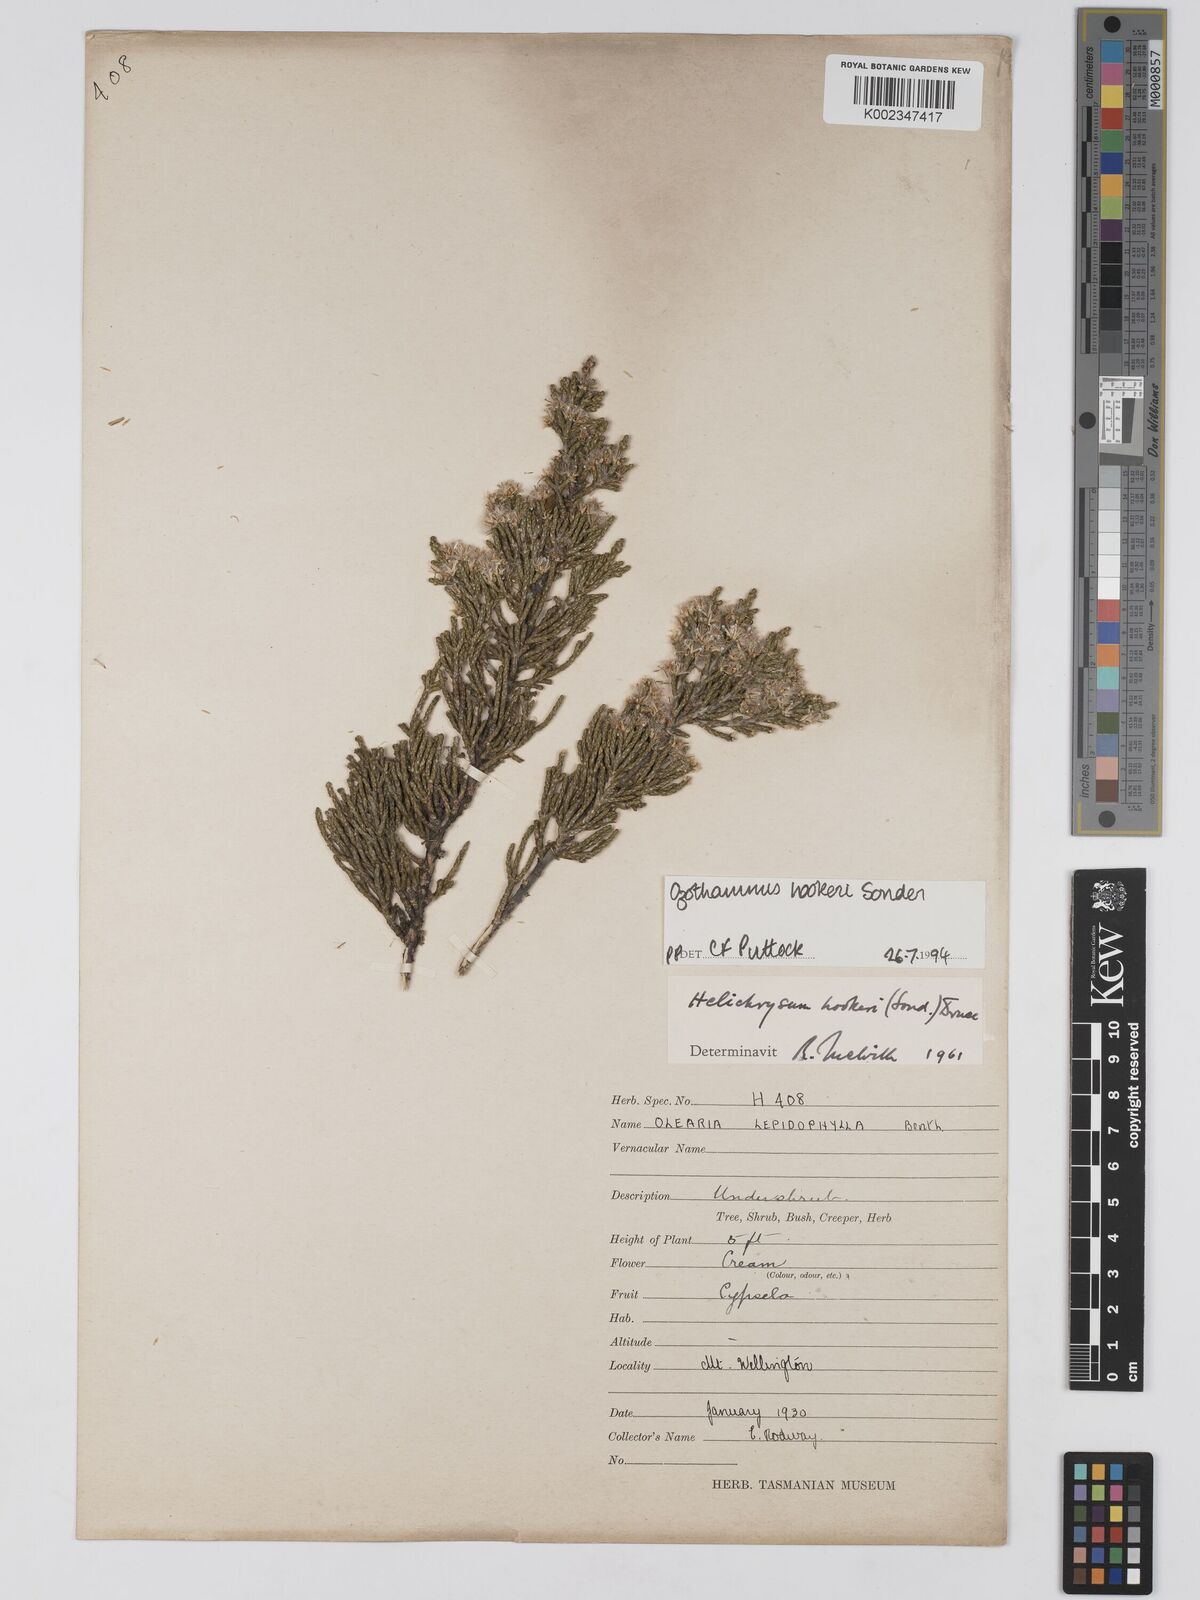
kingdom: Plantae
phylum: Tracheophyta
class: Magnoliopsida
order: Asterales
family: Asteraceae
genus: Ozothamnus
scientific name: Ozothamnus hookeri
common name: Kerosene-bush
